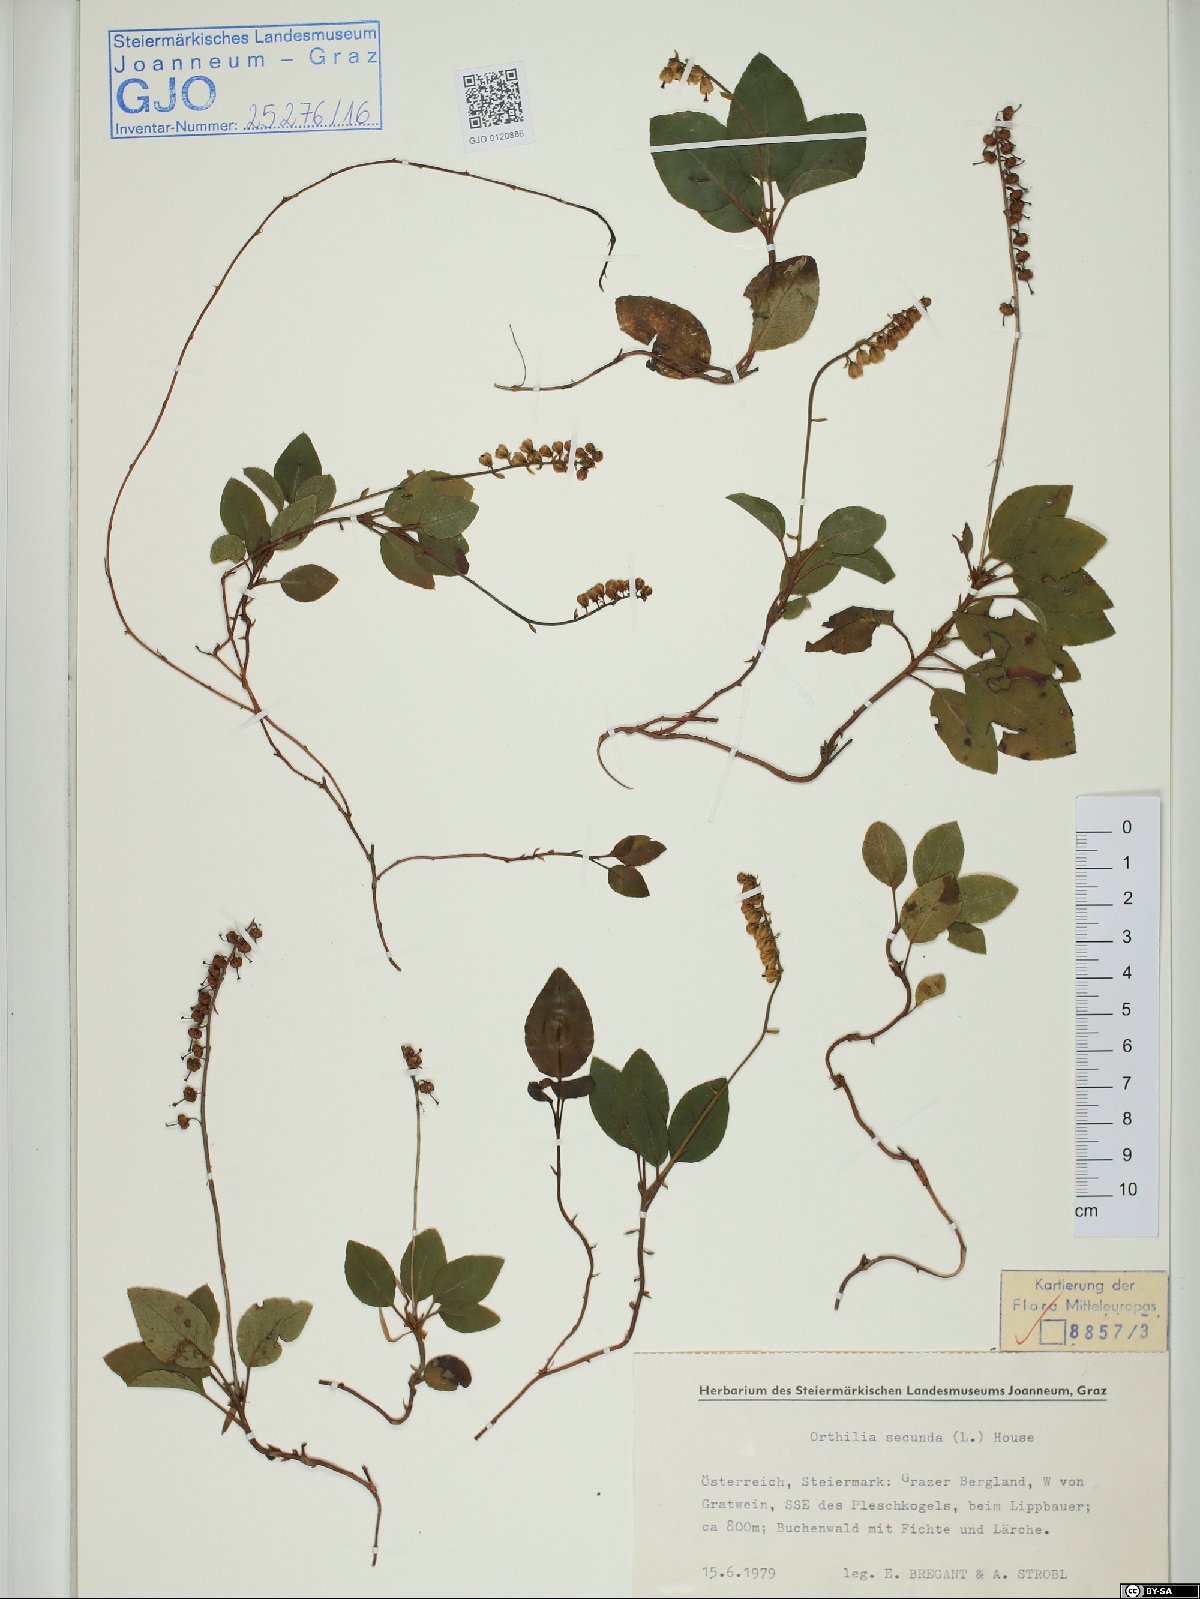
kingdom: Plantae
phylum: Tracheophyta
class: Magnoliopsida
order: Ericales
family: Ericaceae
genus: Orthilia
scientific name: Orthilia secunda
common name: One-sided orthilia
